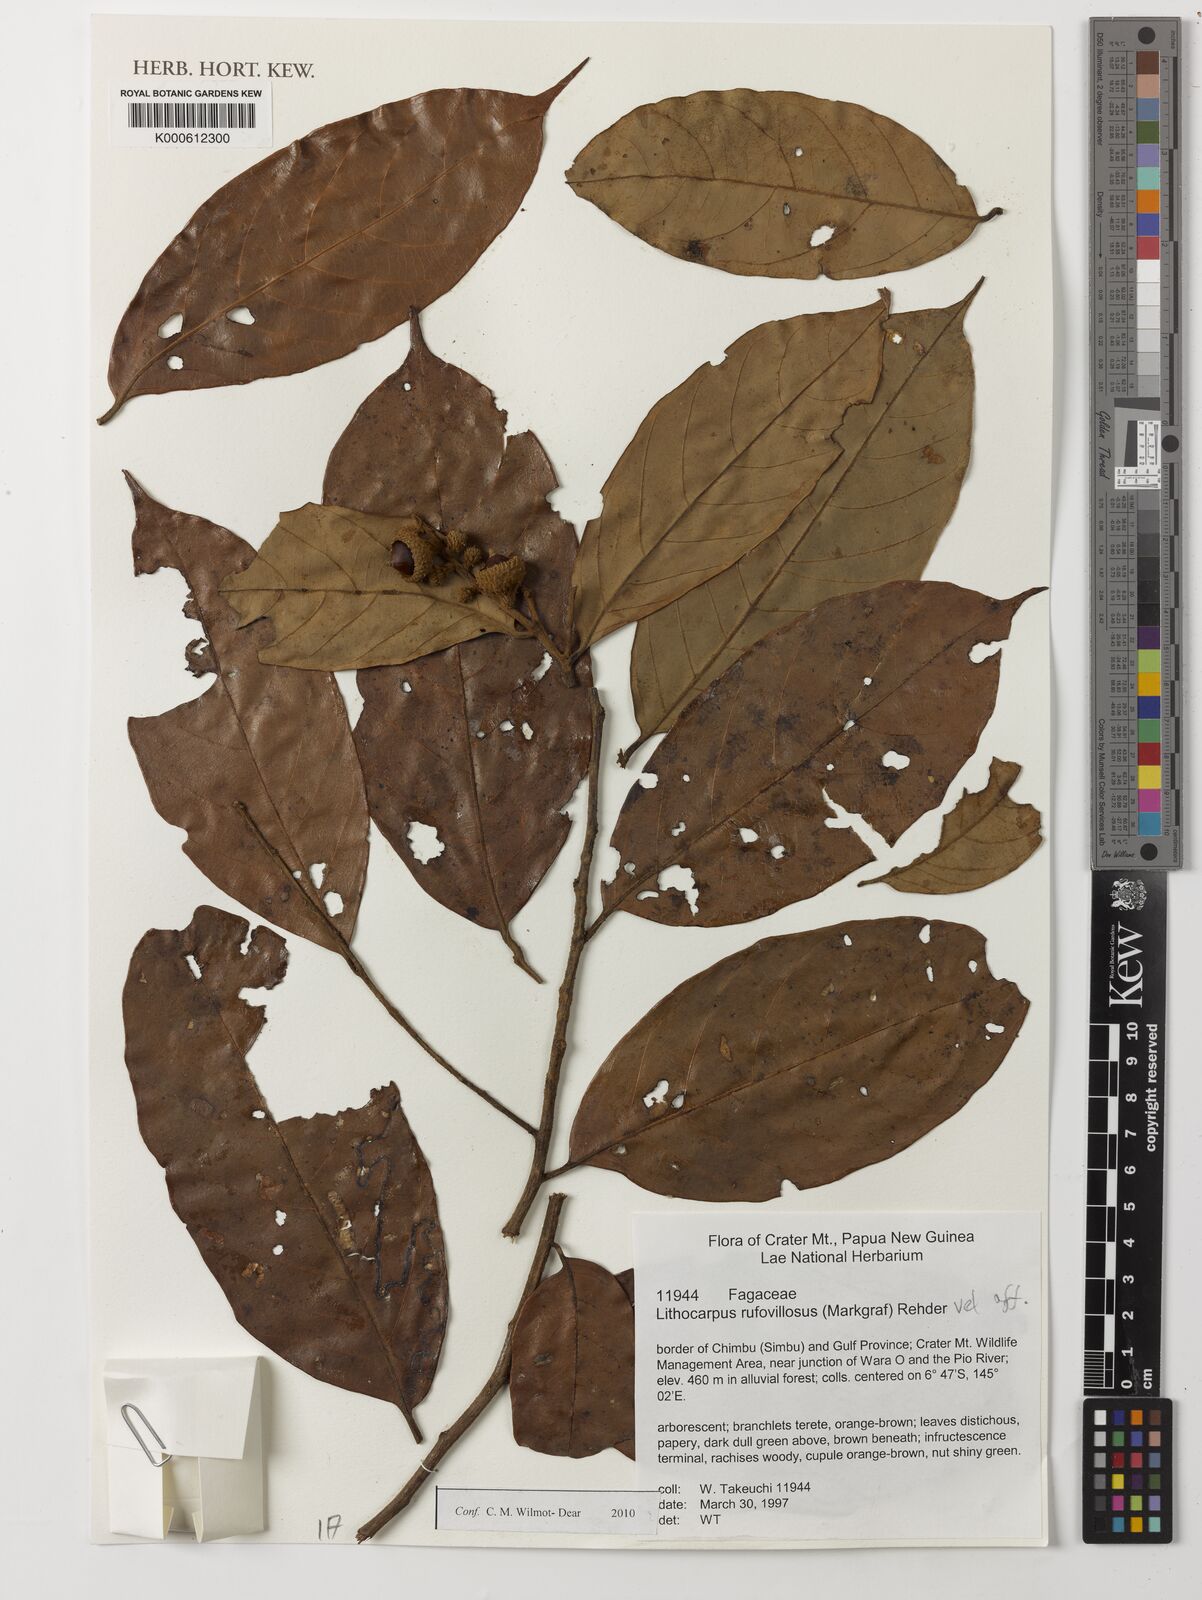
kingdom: Plantae
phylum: Tracheophyta
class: Magnoliopsida
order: Fagales
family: Fagaceae
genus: Lithocarpus
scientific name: Lithocarpus rufovillosus
